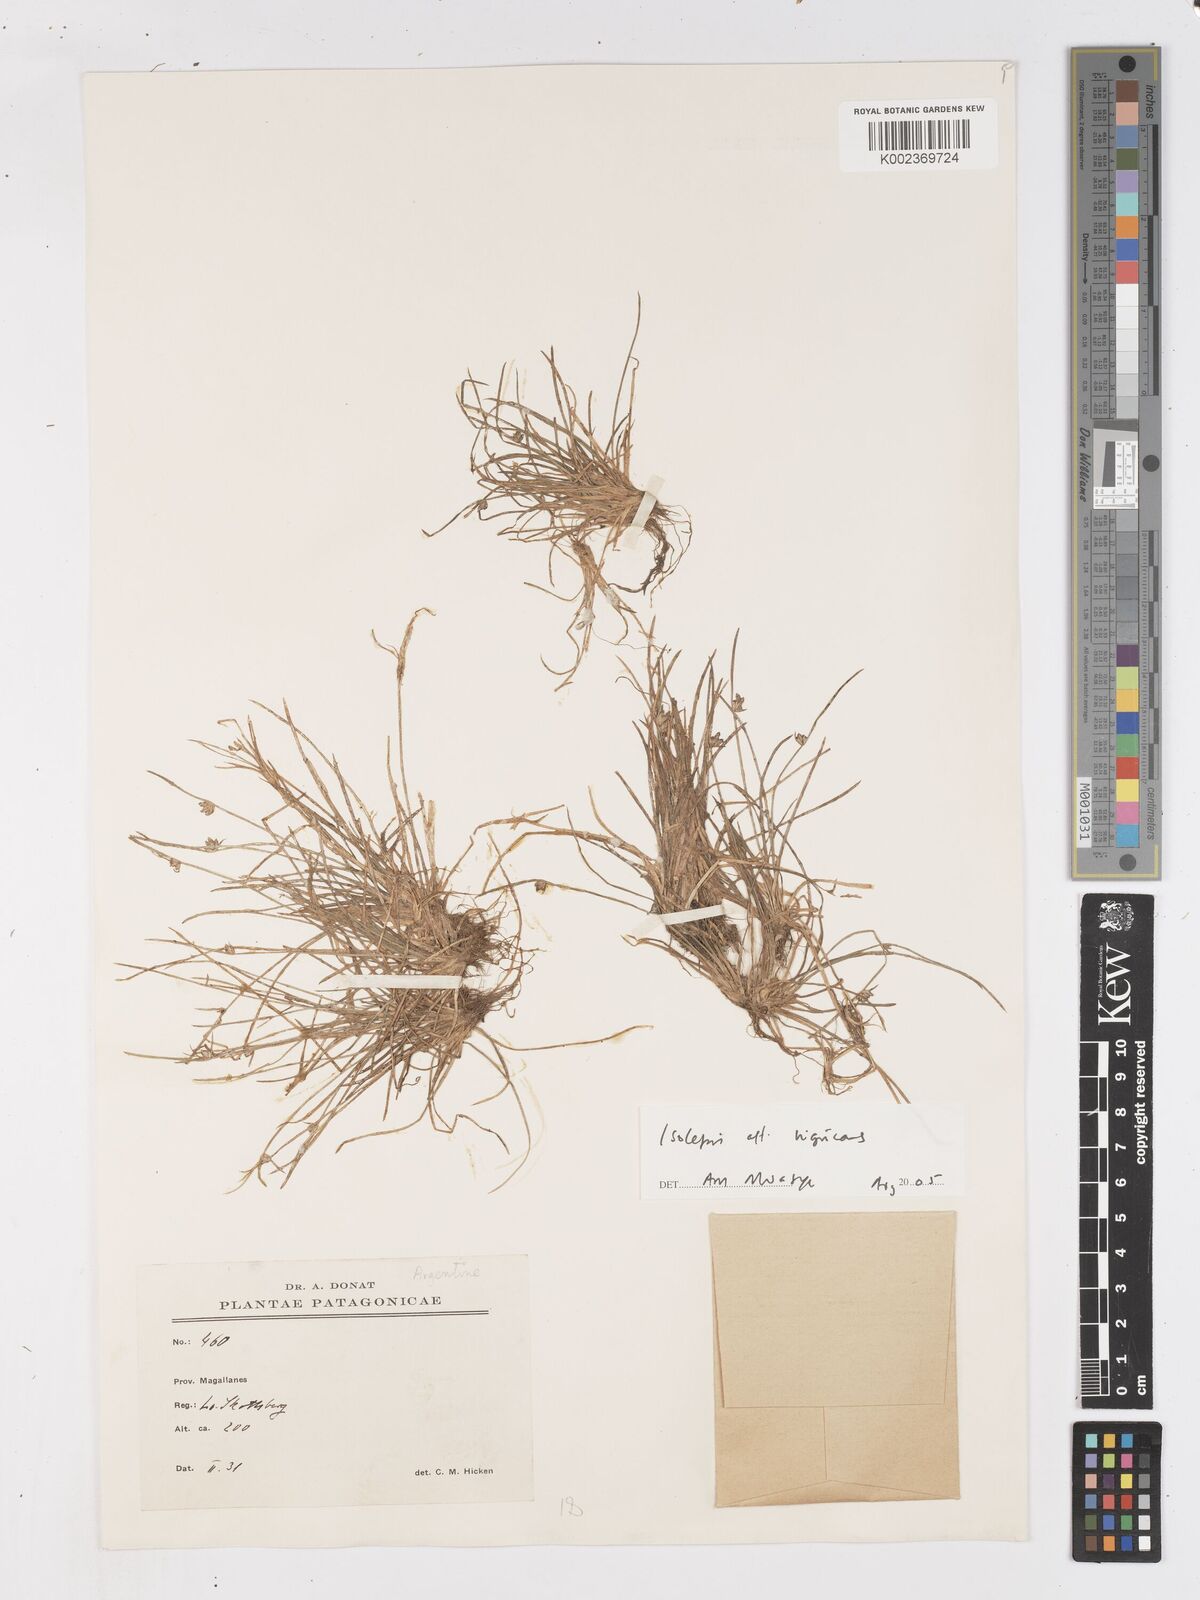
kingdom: Plantae
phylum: Tracheophyta
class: Liliopsida
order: Poales
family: Cyperaceae
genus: Isolepis
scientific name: Isolepis nigricans
